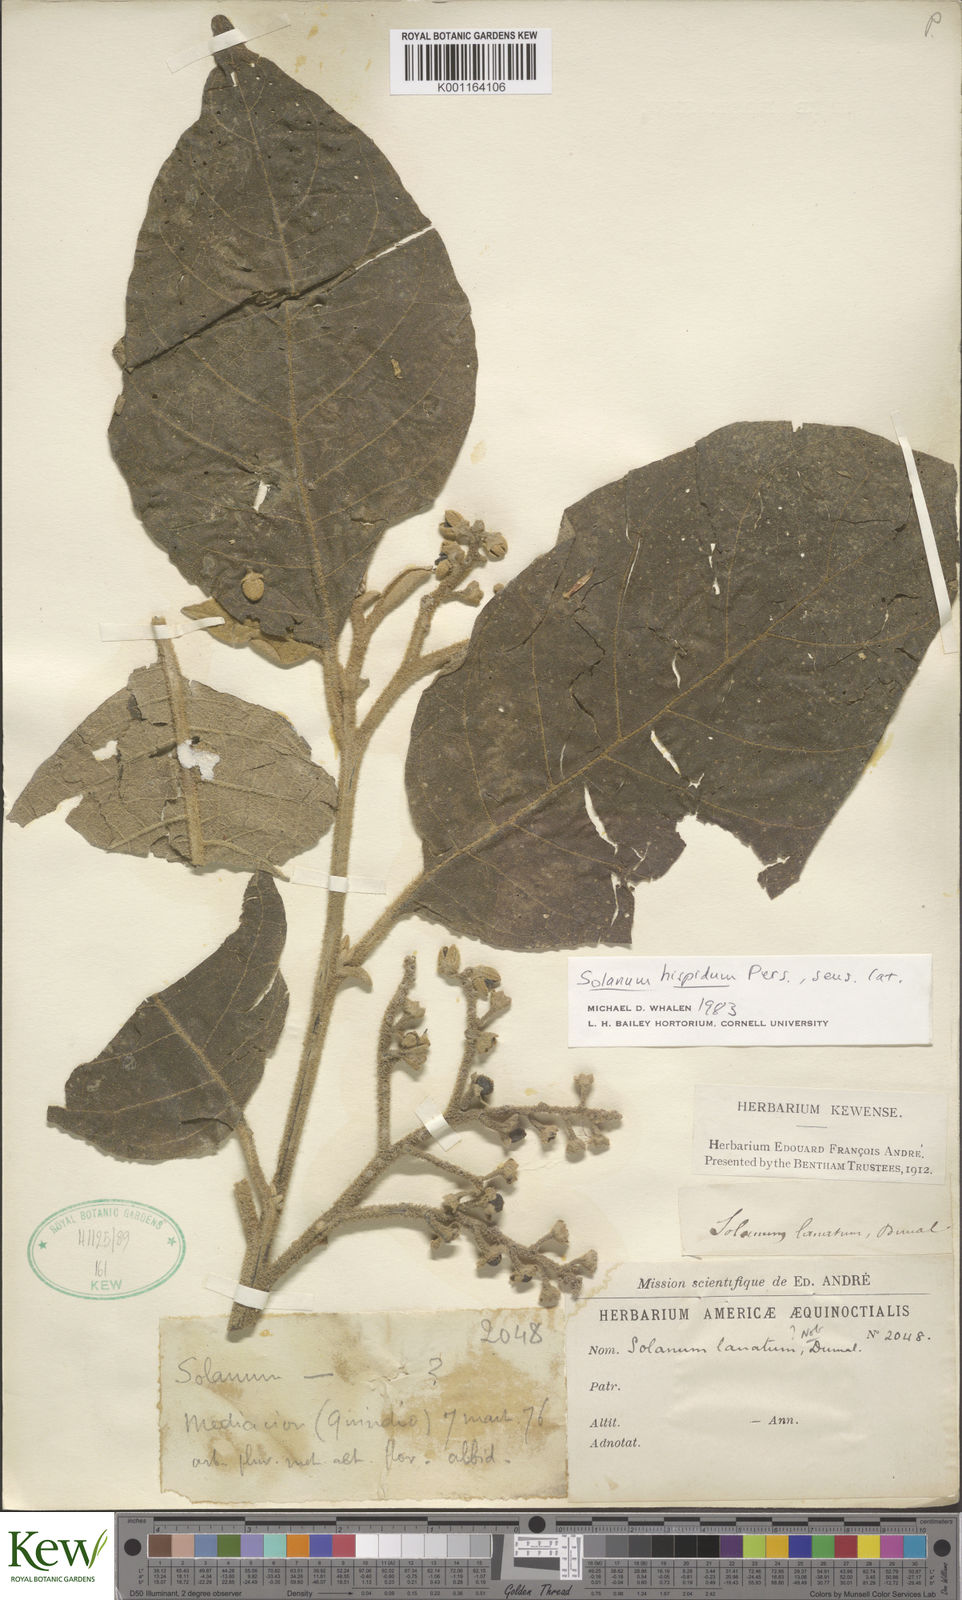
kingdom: Plantae
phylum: Tracheophyta
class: Magnoliopsida
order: Solanales
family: Solanaceae
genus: Solanum
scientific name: Solanum asperolanatum
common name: Devil's-fig
